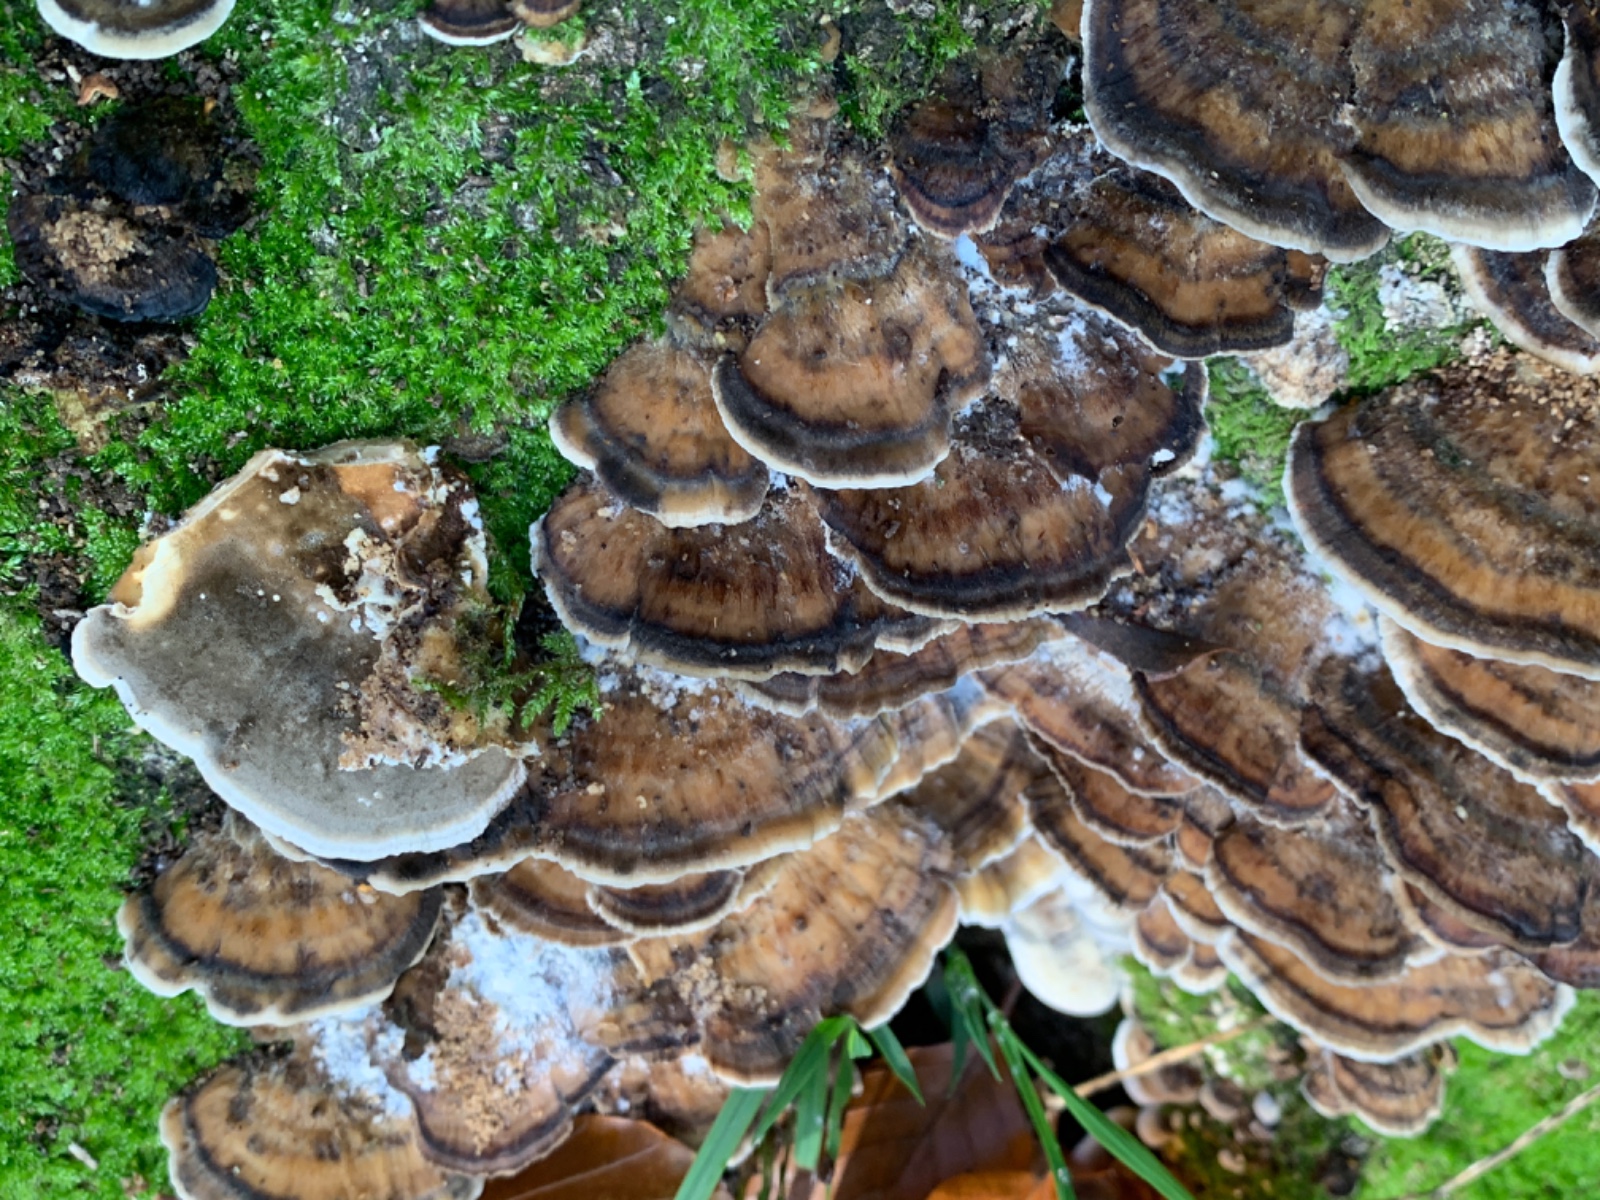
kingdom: Fungi
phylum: Basidiomycota
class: Agaricomycetes
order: Polyporales
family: Phanerochaetaceae
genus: Bjerkandera
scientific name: Bjerkandera adusta
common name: sveden sodporesvamp
